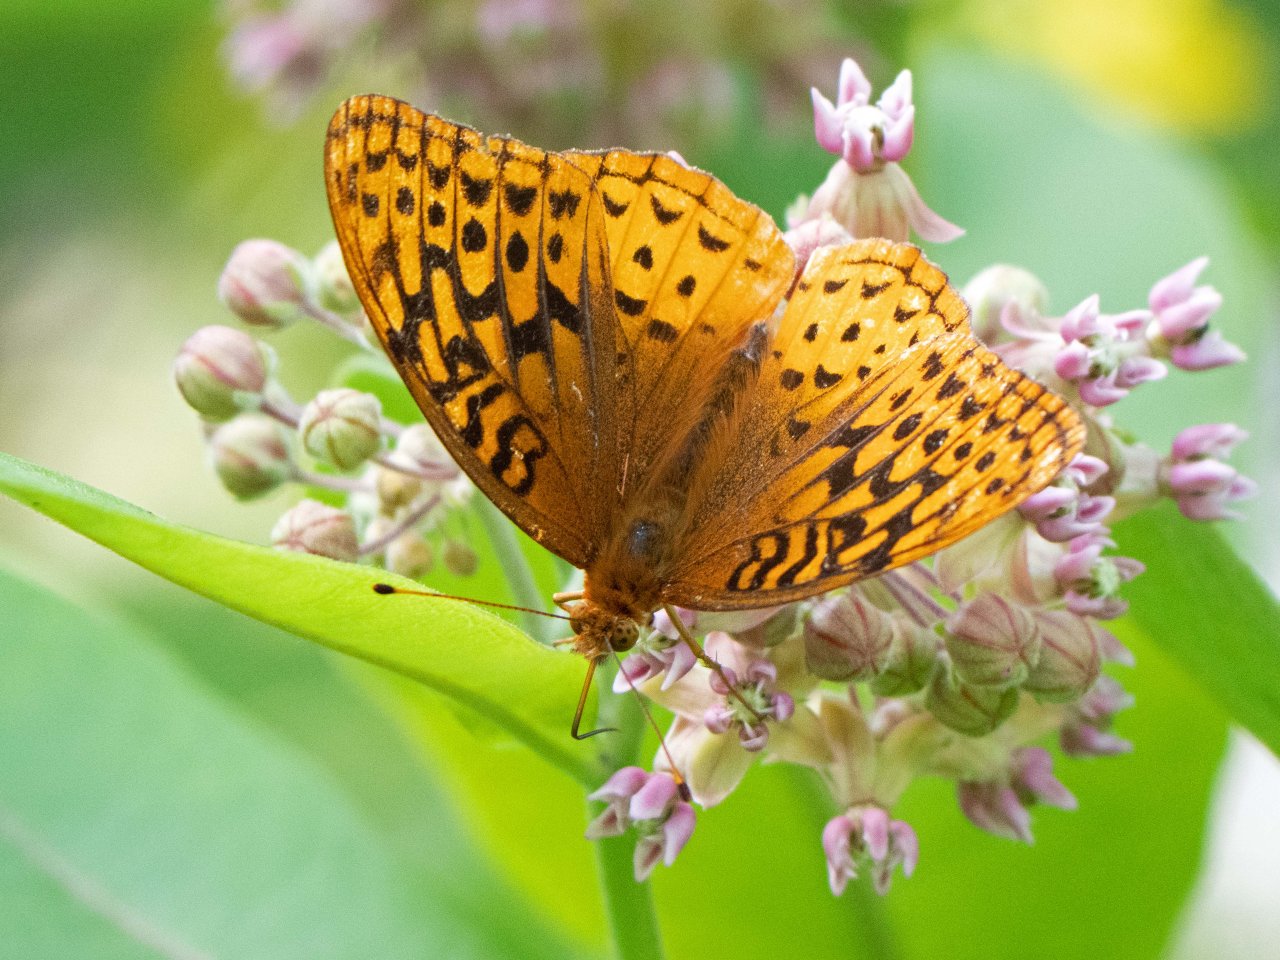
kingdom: Animalia
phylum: Arthropoda
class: Insecta
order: Lepidoptera
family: Nymphalidae
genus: Speyeria
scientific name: Speyeria cybele
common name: Great Spangled Fritillary
